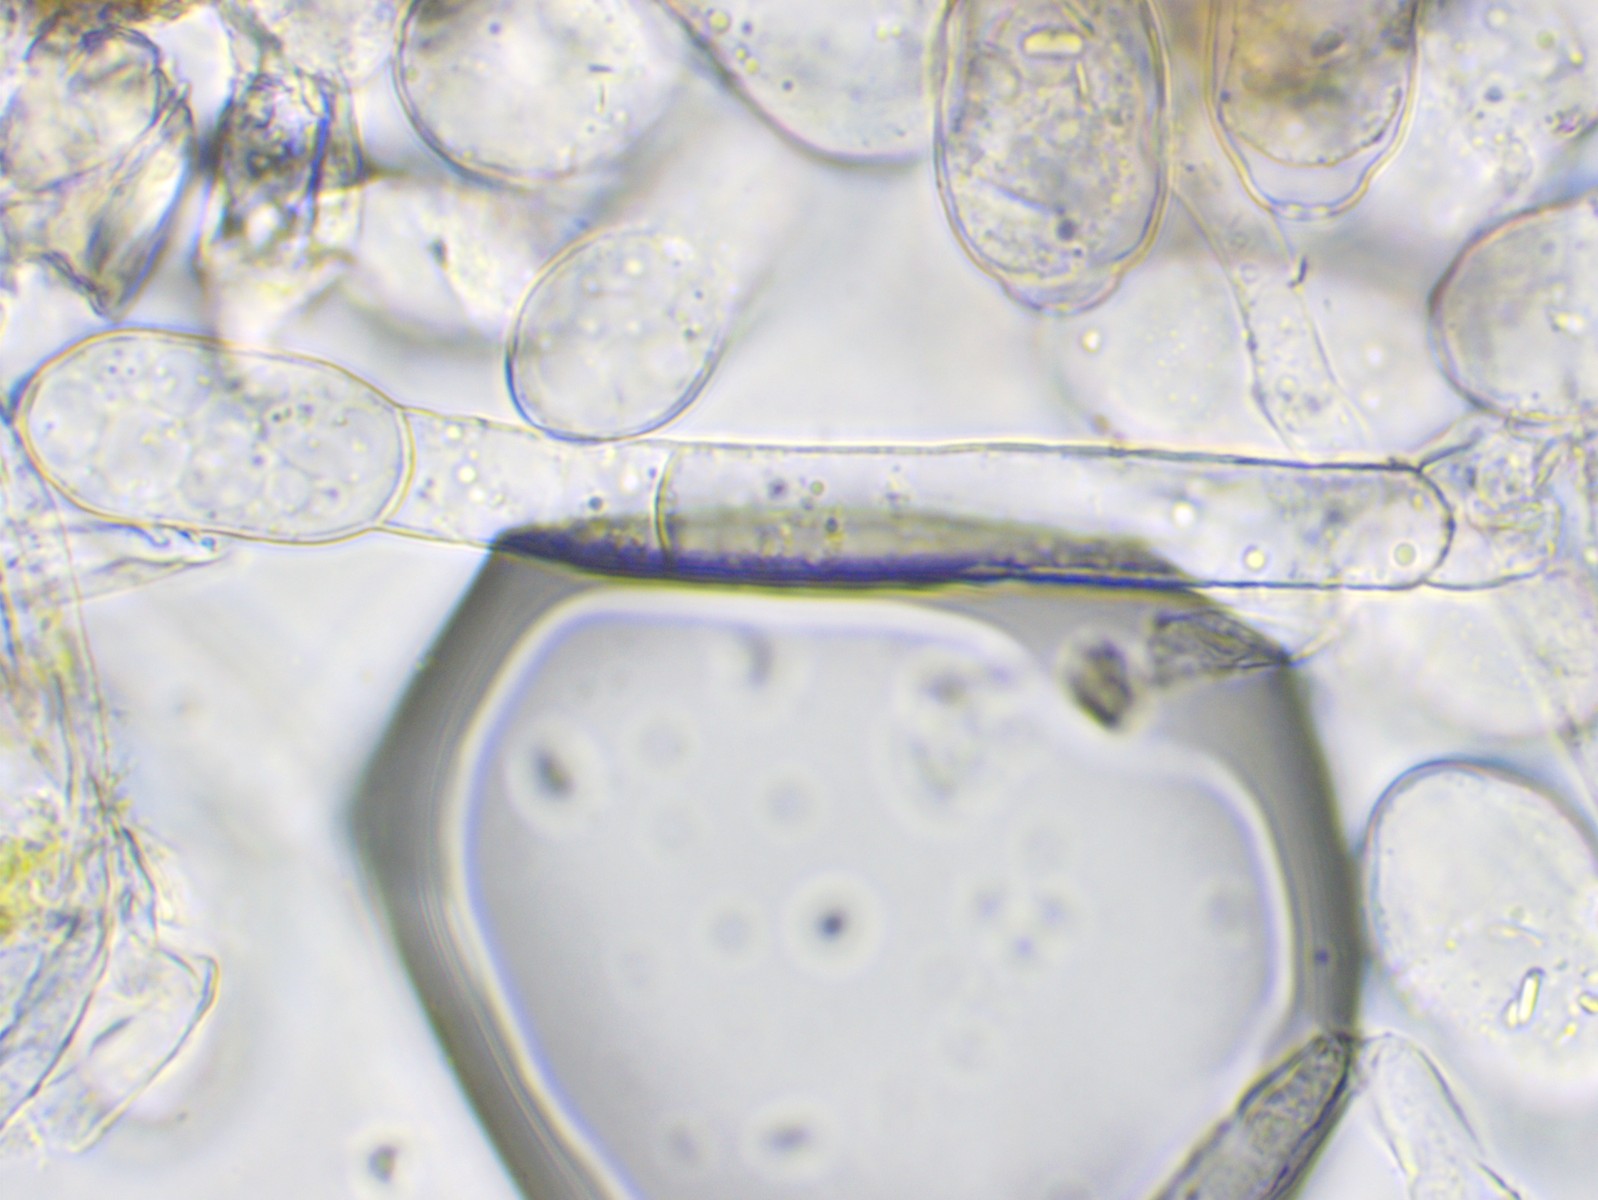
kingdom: Fungi
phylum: Ascomycota
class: Leotiomycetes
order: Helotiales
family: Erysiphaceae
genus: Sawadaea
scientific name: Sawadaea bicornis
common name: Maple mildew
